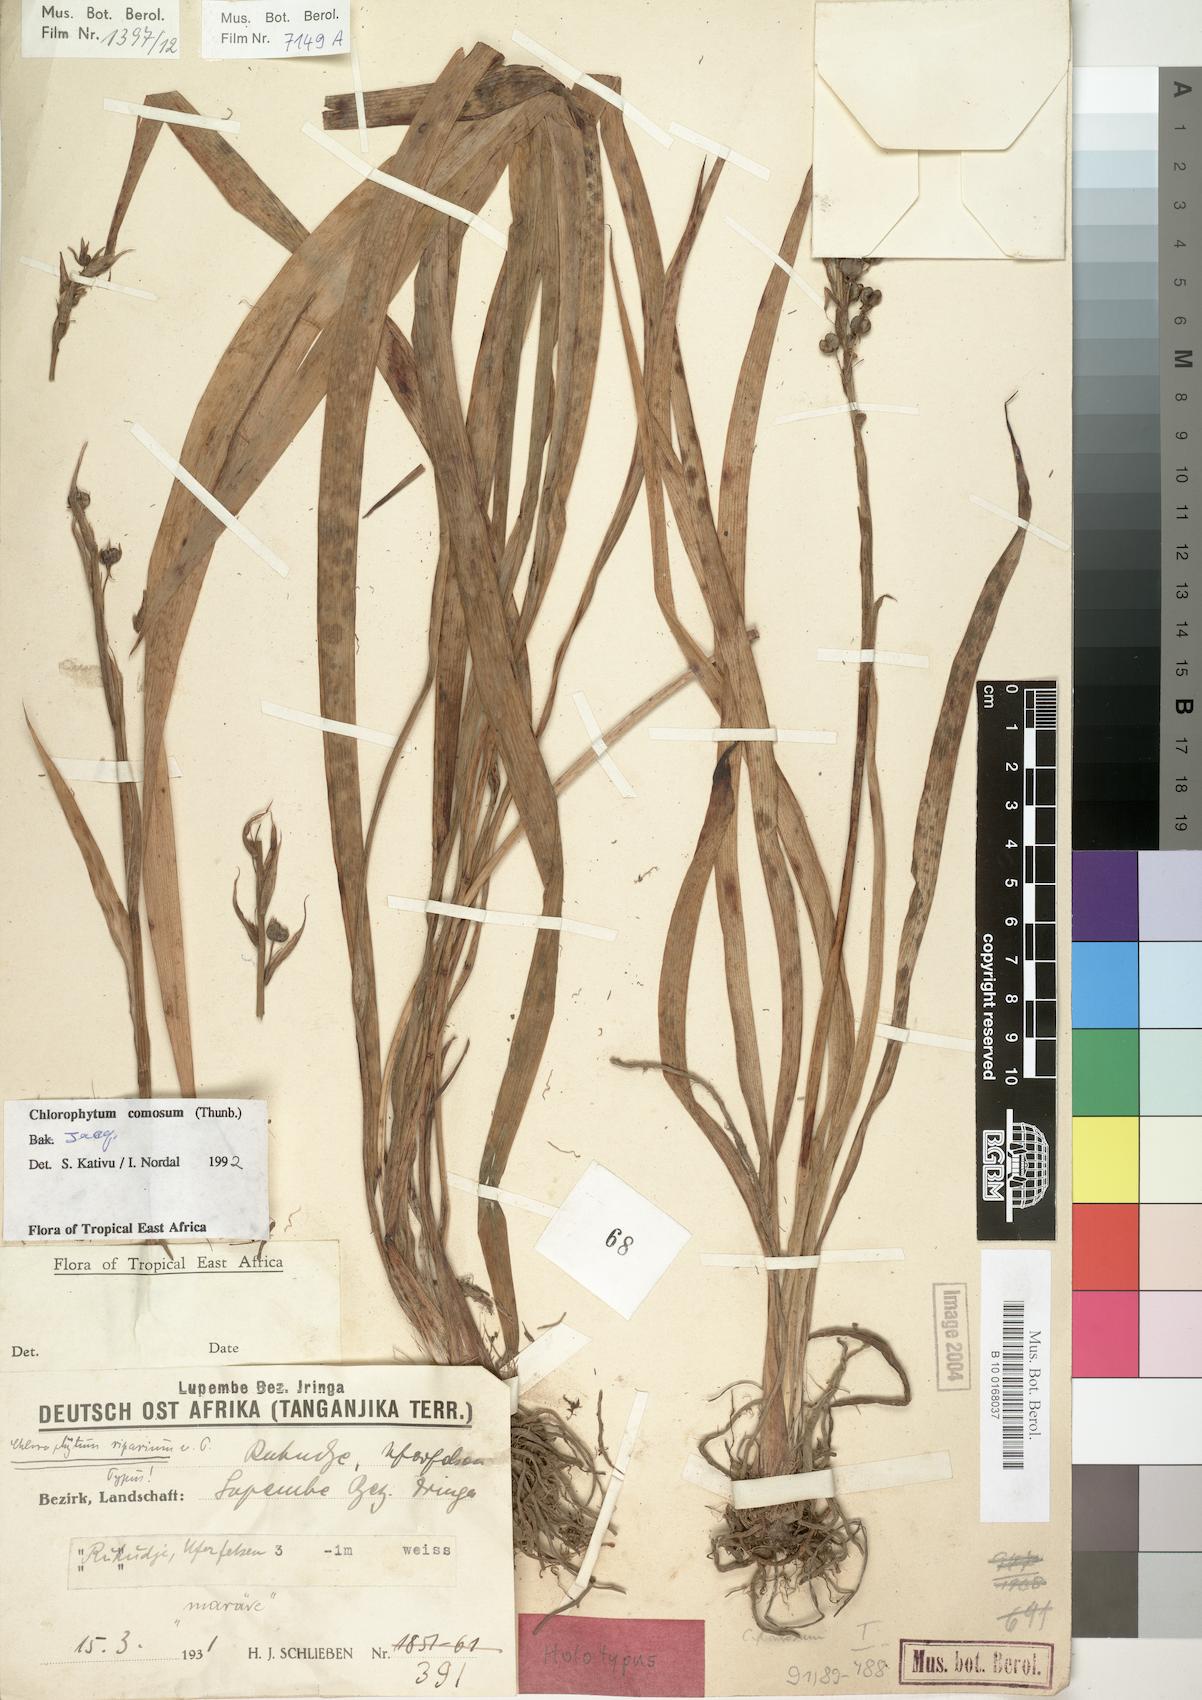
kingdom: Plantae
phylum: Tracheophyta
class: Liliopsida
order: Asparagales
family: Asparagaceae
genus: Chlorophytum
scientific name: Chlorophytum comosum
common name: Spider plant
